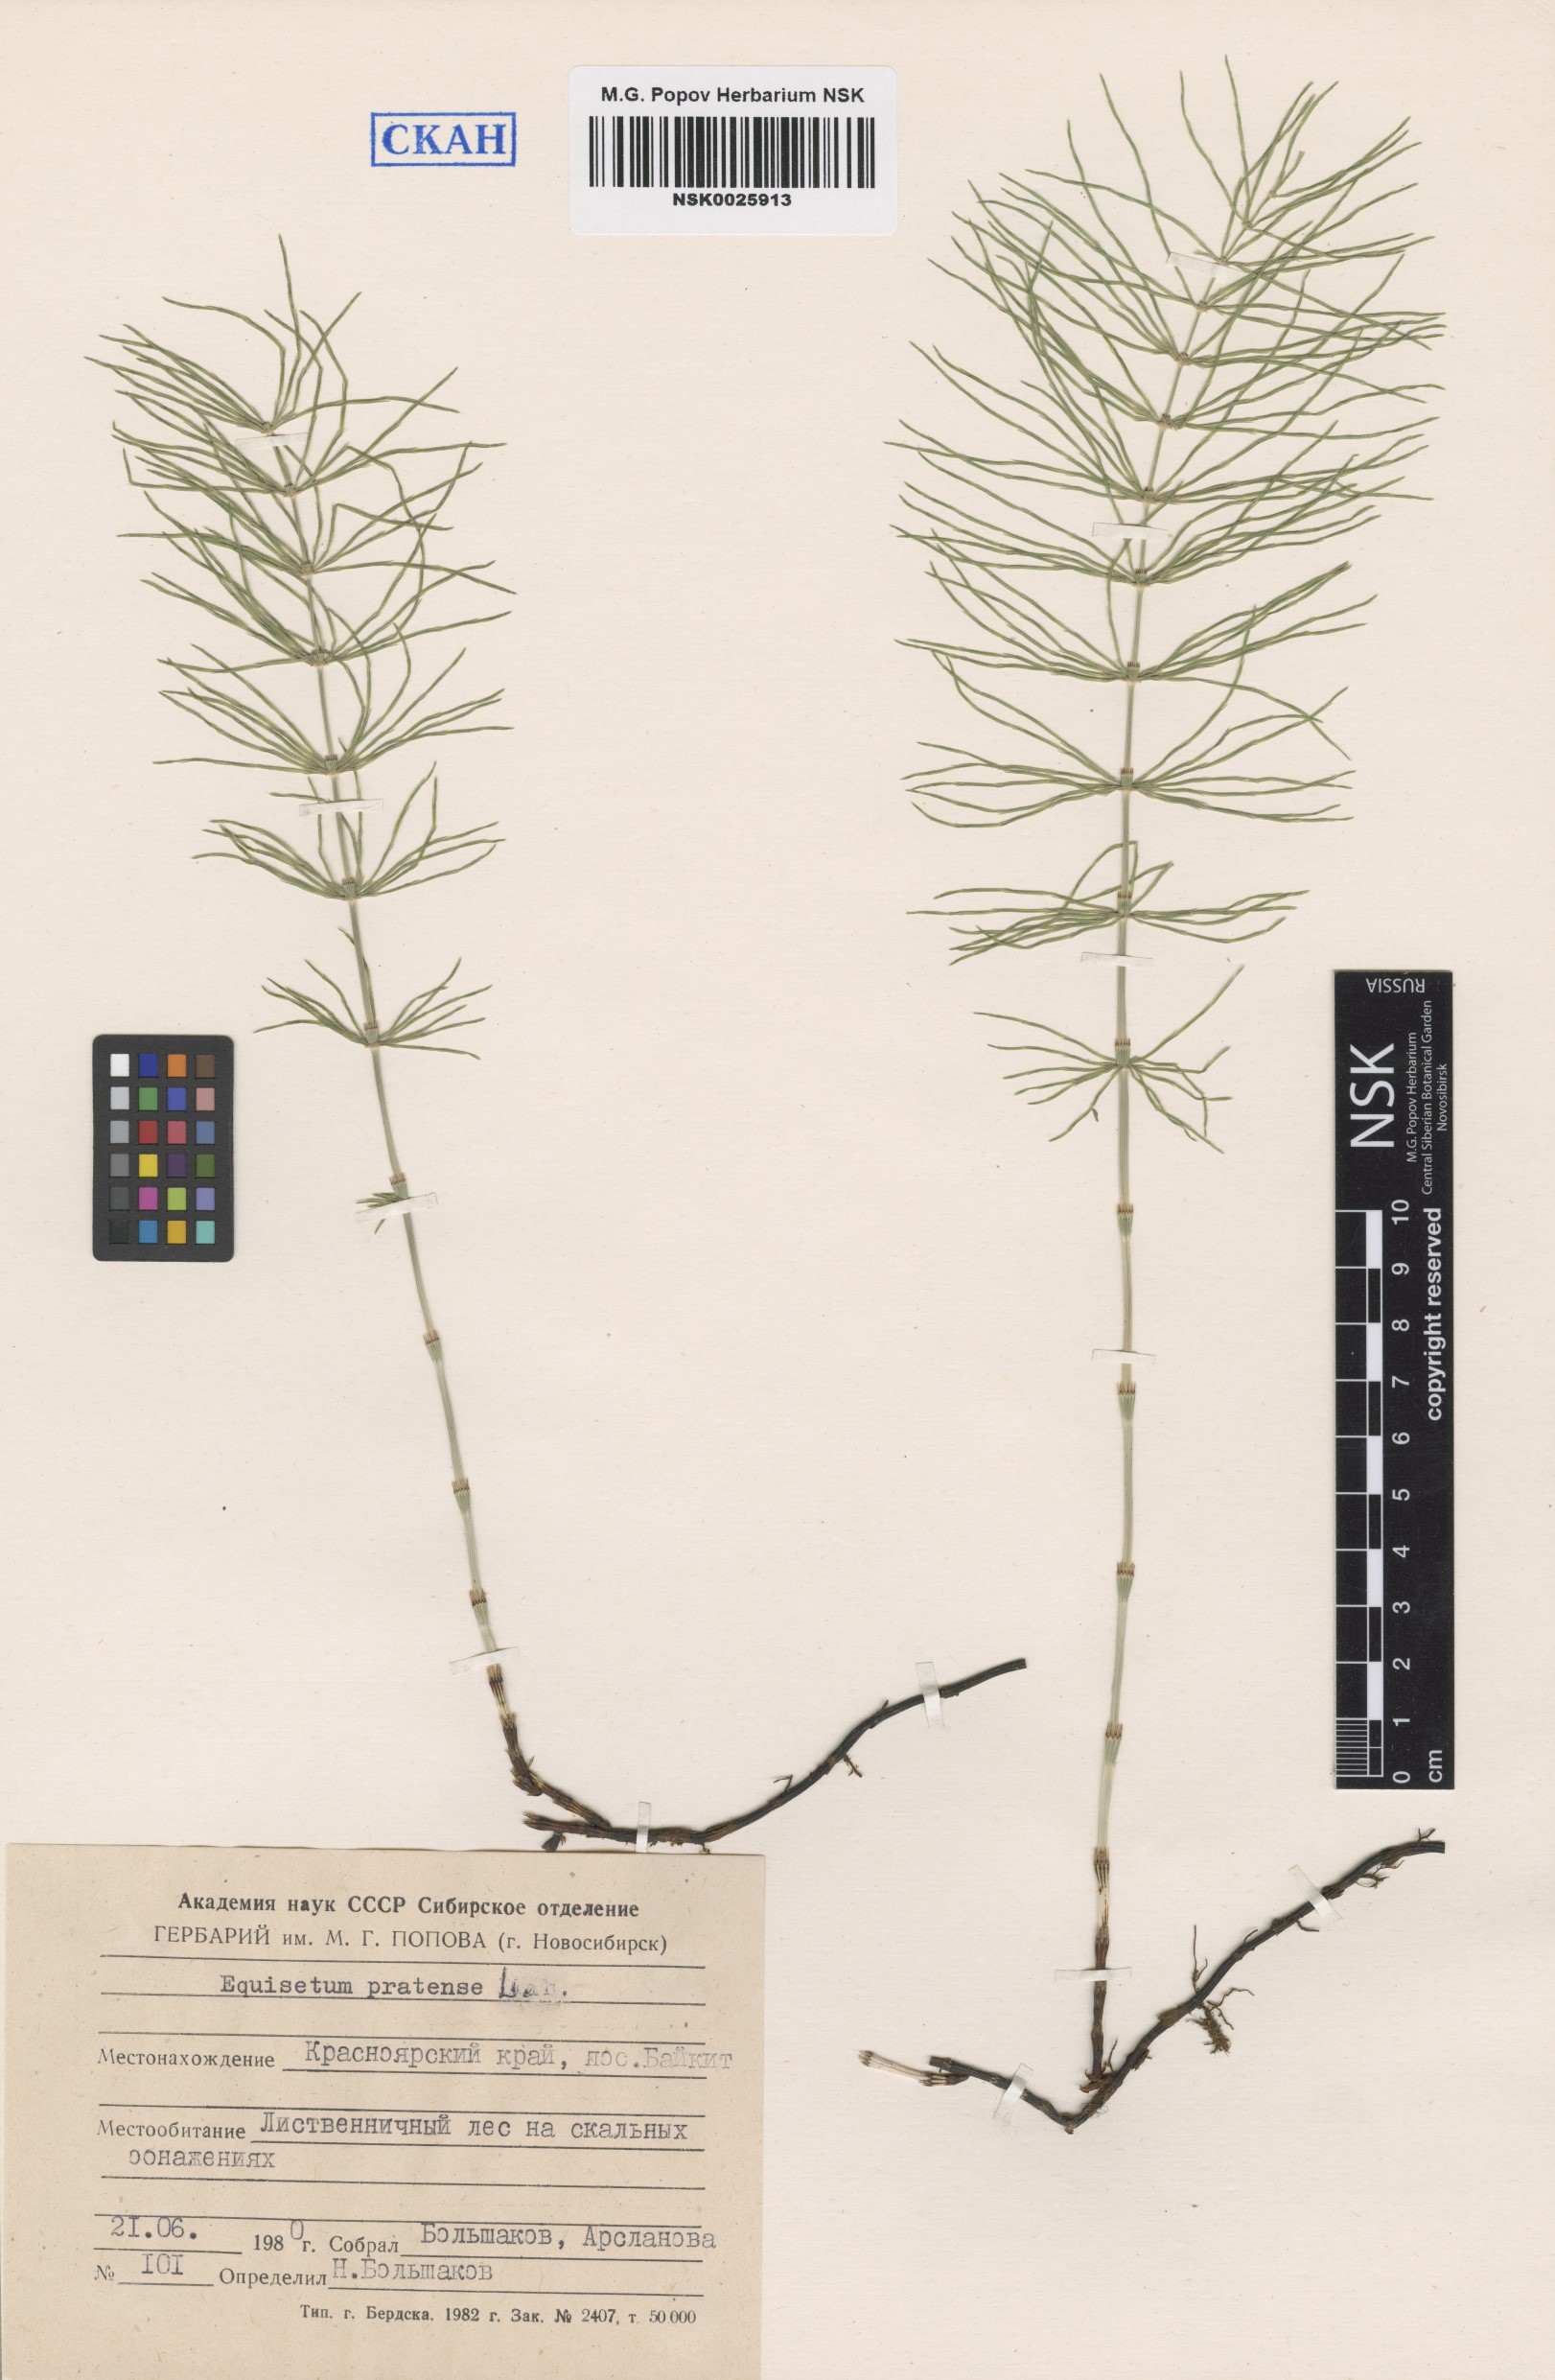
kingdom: Plantae
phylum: Tracheophyta
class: Polypodiopsida
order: Equisetales
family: Equisetaceae
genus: Equisetum
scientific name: Equisetum pratense
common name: Meadow horsetail
